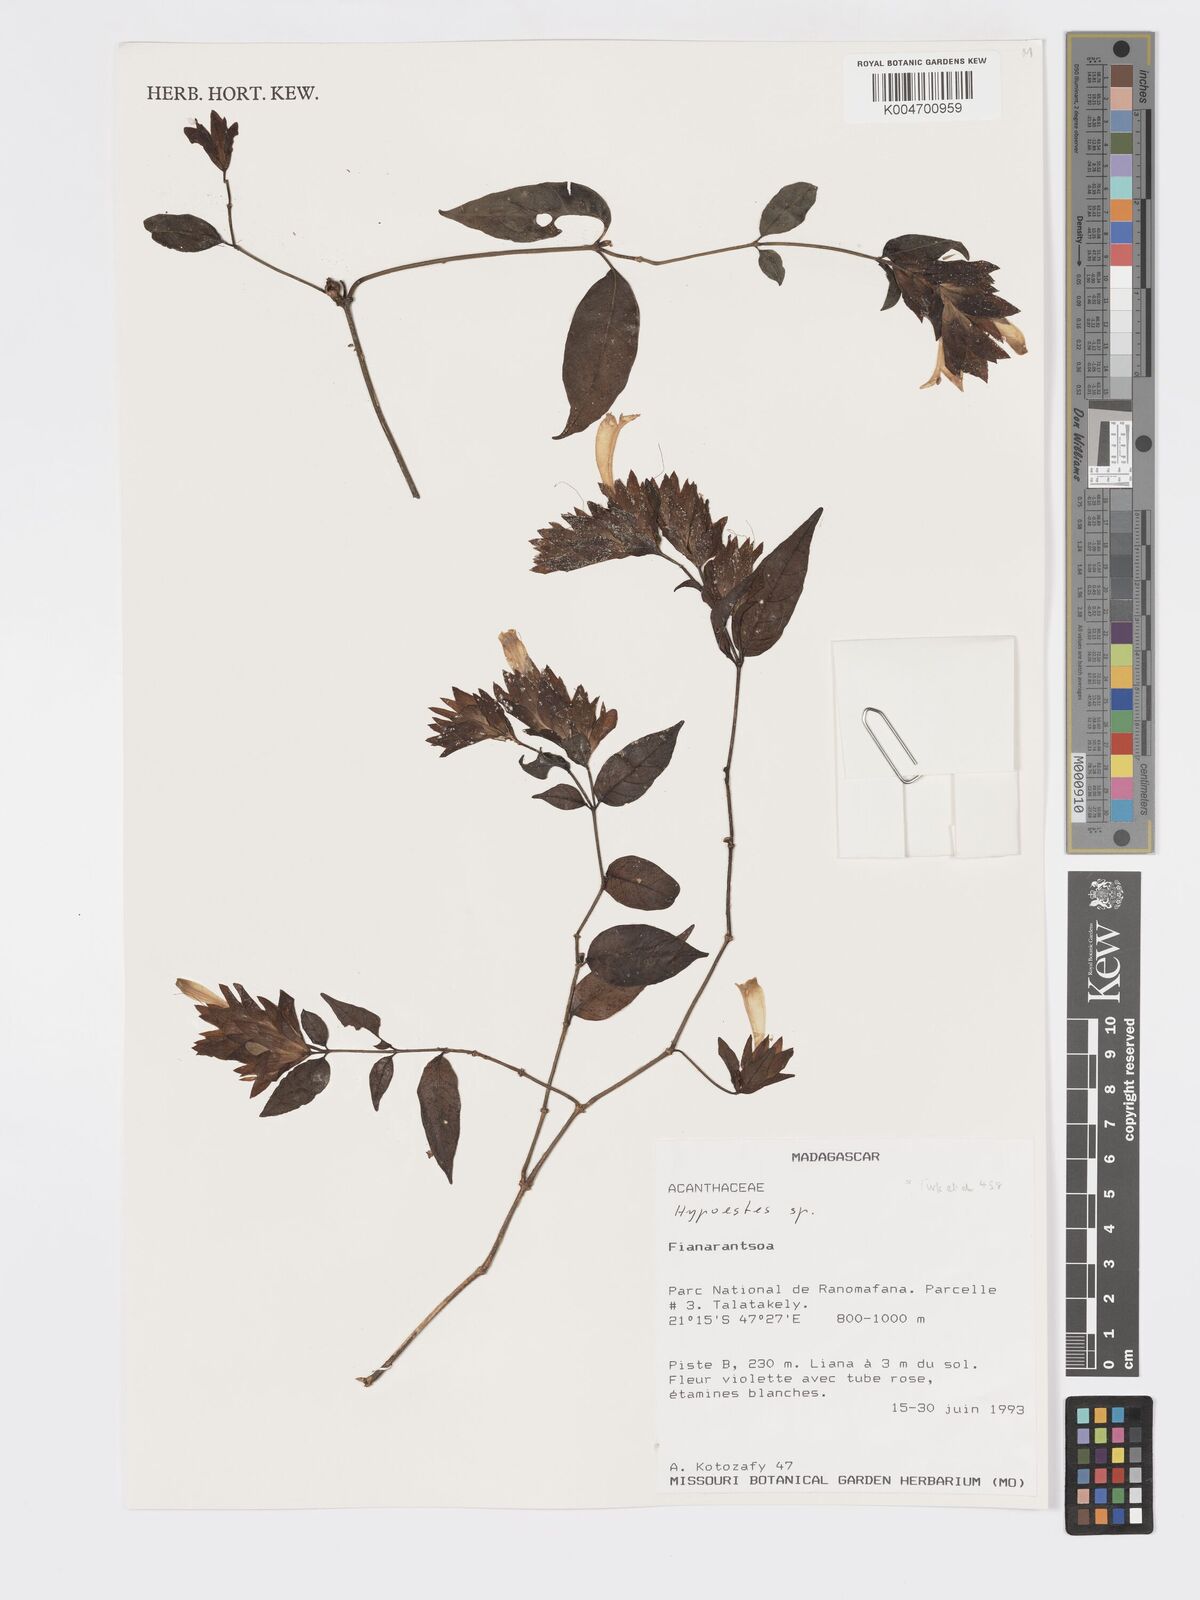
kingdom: Plantae
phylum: Tracheophyta
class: Magnoliopsida
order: Lamiales
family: Acanthaceae
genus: Hypoestes
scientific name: Hypoestes
